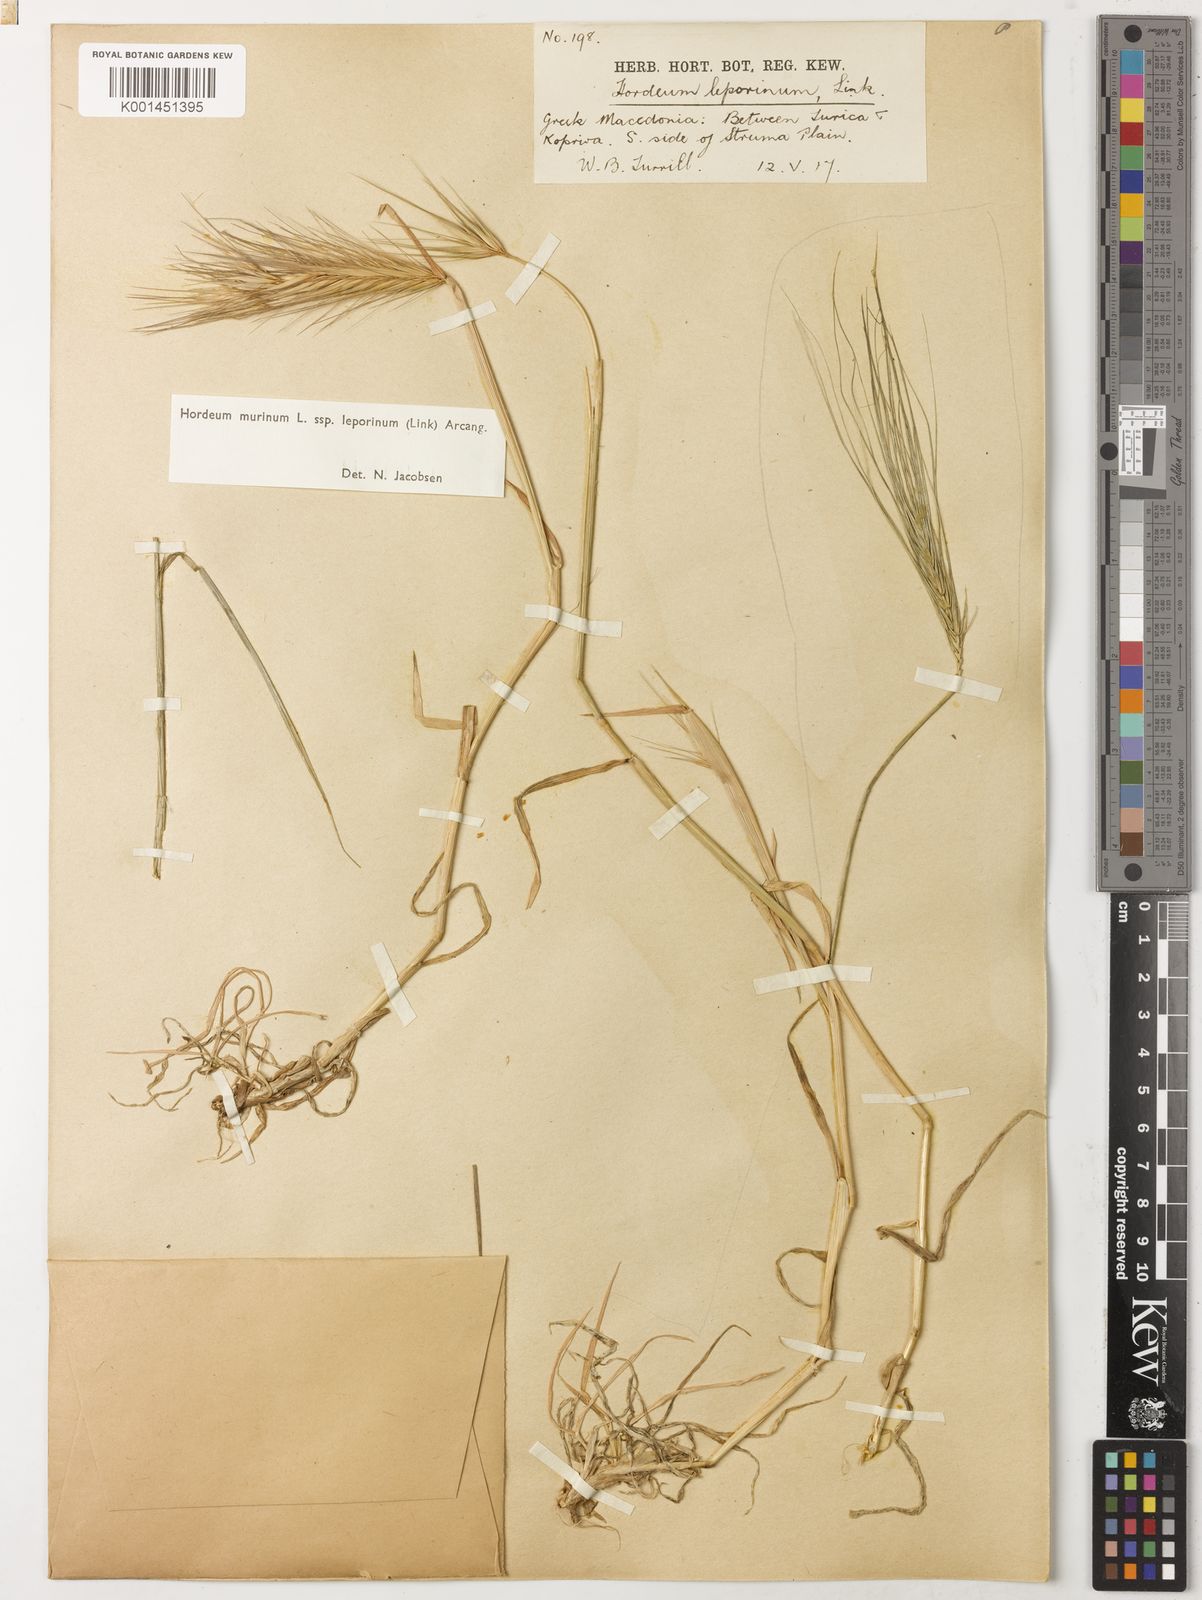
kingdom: Plantae
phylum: Tracheophyta
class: Liliopsida
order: Poales
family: Poaceae
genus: Hordeum
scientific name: Hordeum murinum
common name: Wall barley
